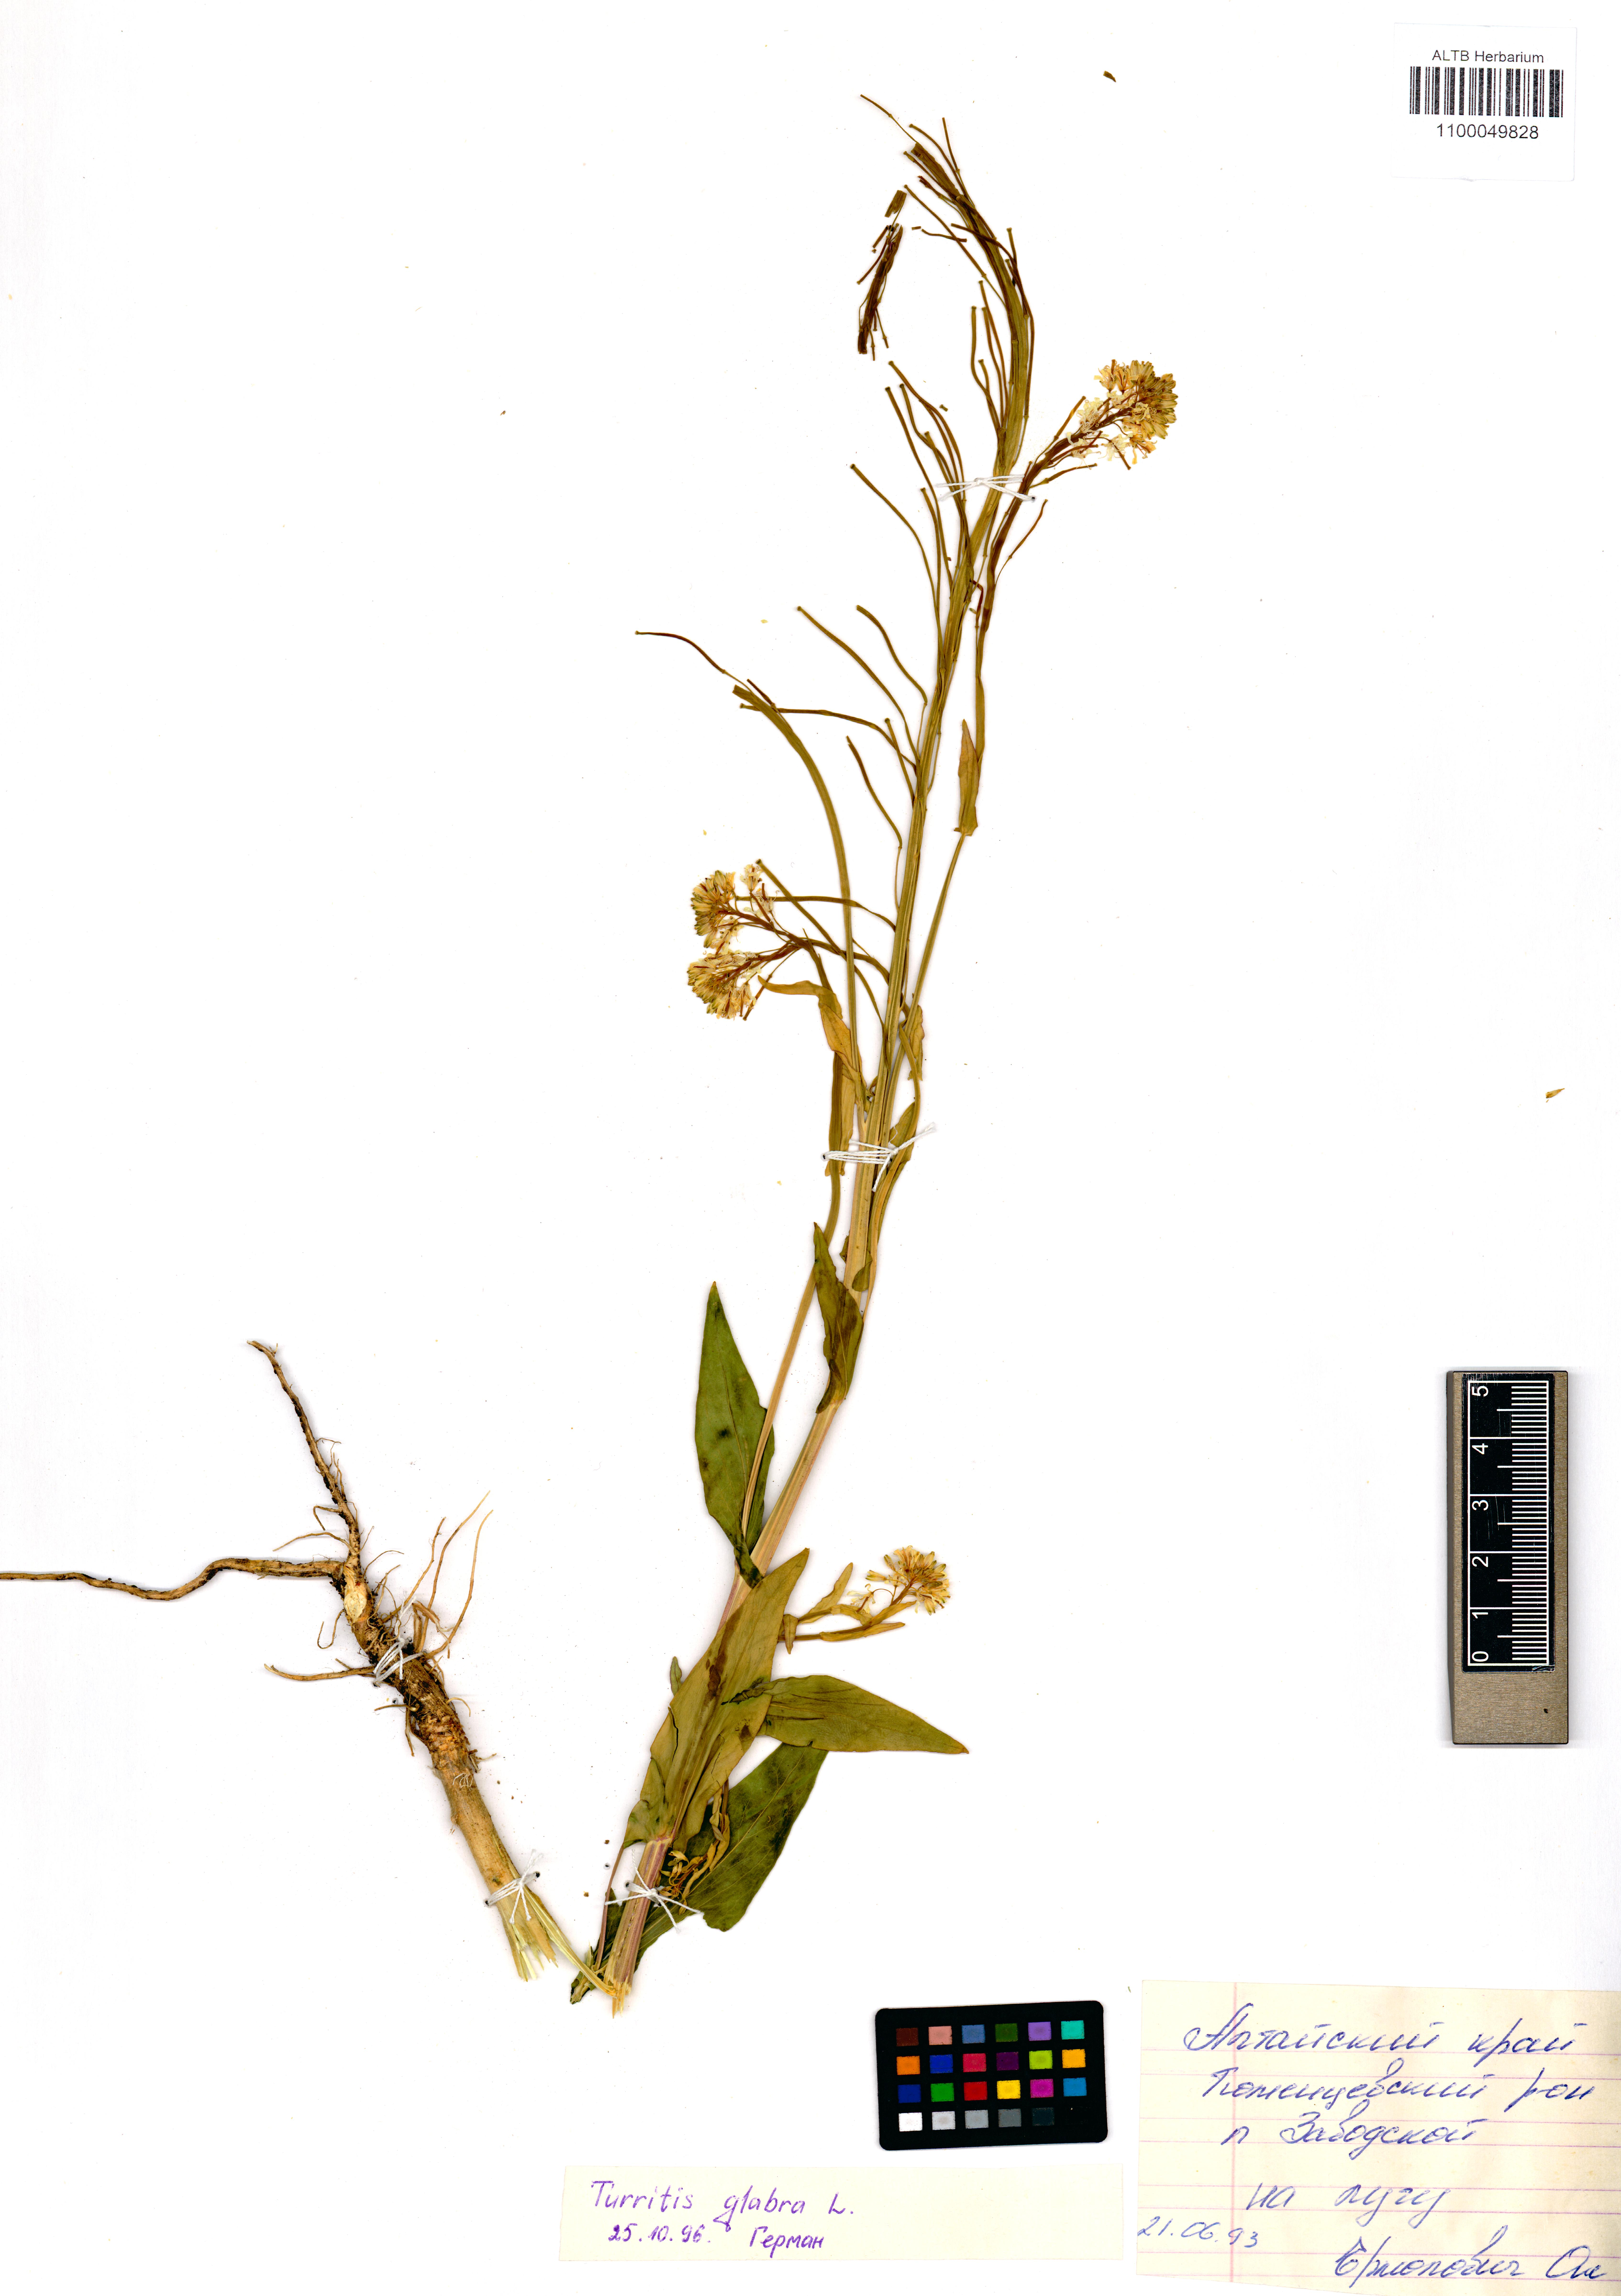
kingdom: Plantae
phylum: Tracheophyta
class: Magnoliopsida
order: Brassicales
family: Brassicaceae
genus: Turritis
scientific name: Turritis glabra
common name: Tower rockcress
